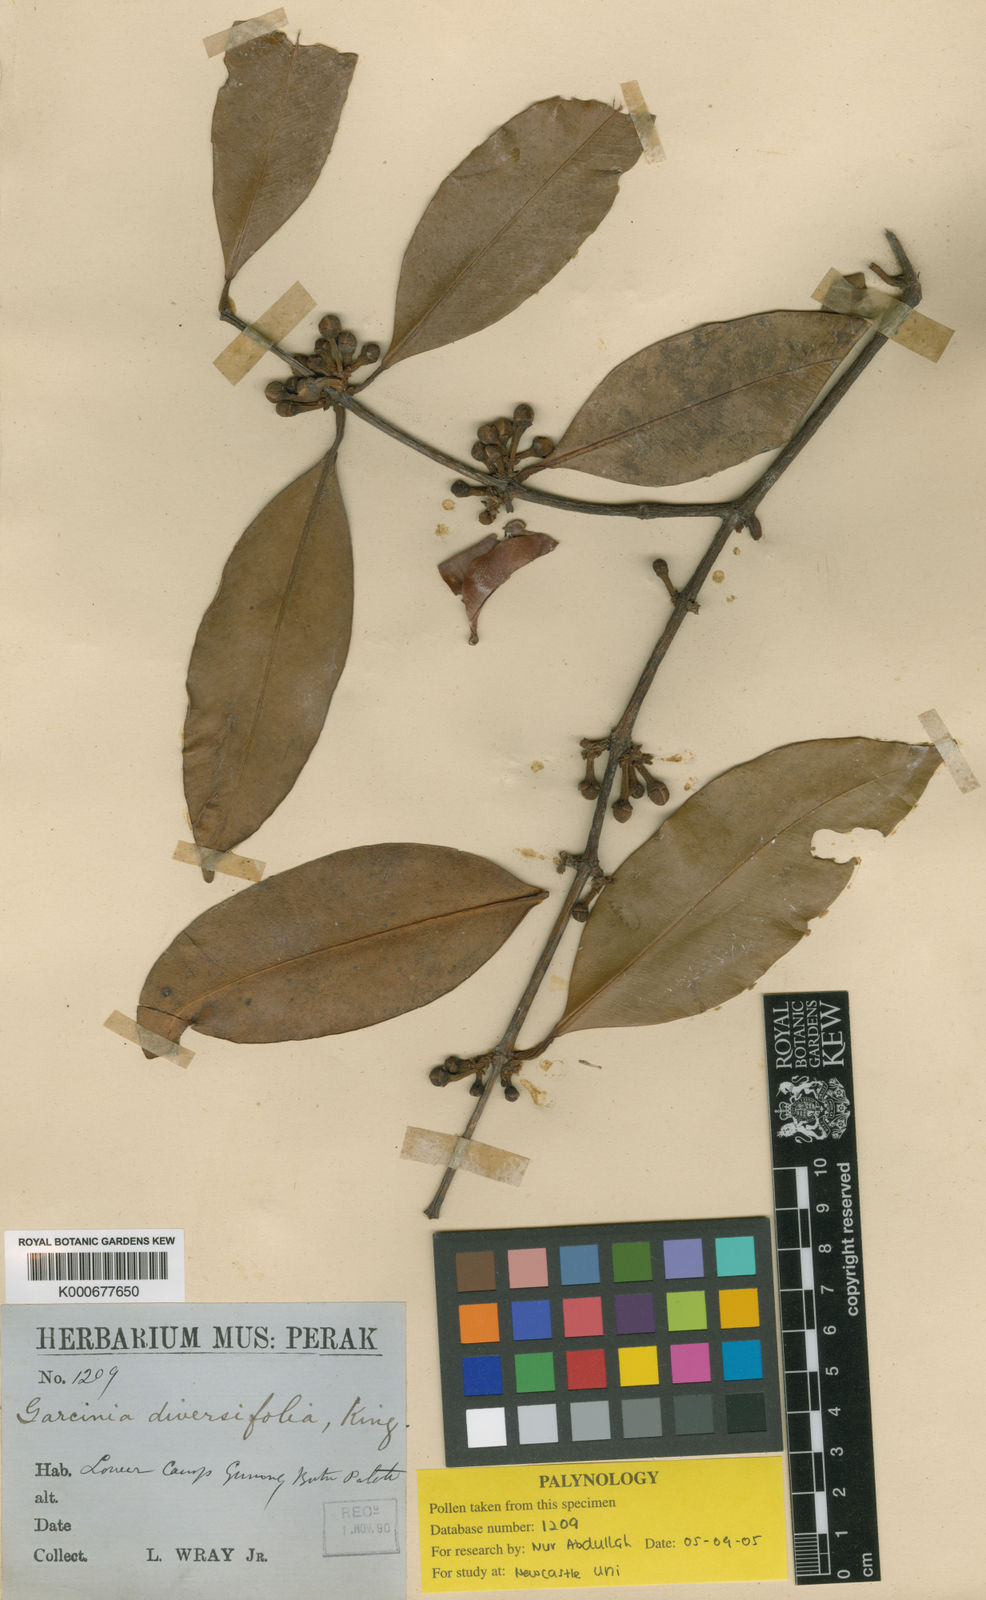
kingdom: Plantae
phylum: Tracheophyta
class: Magnoliopsida
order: Malpighiales
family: Clusiaceae
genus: Garcinia
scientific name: Garcinia diversifolia
